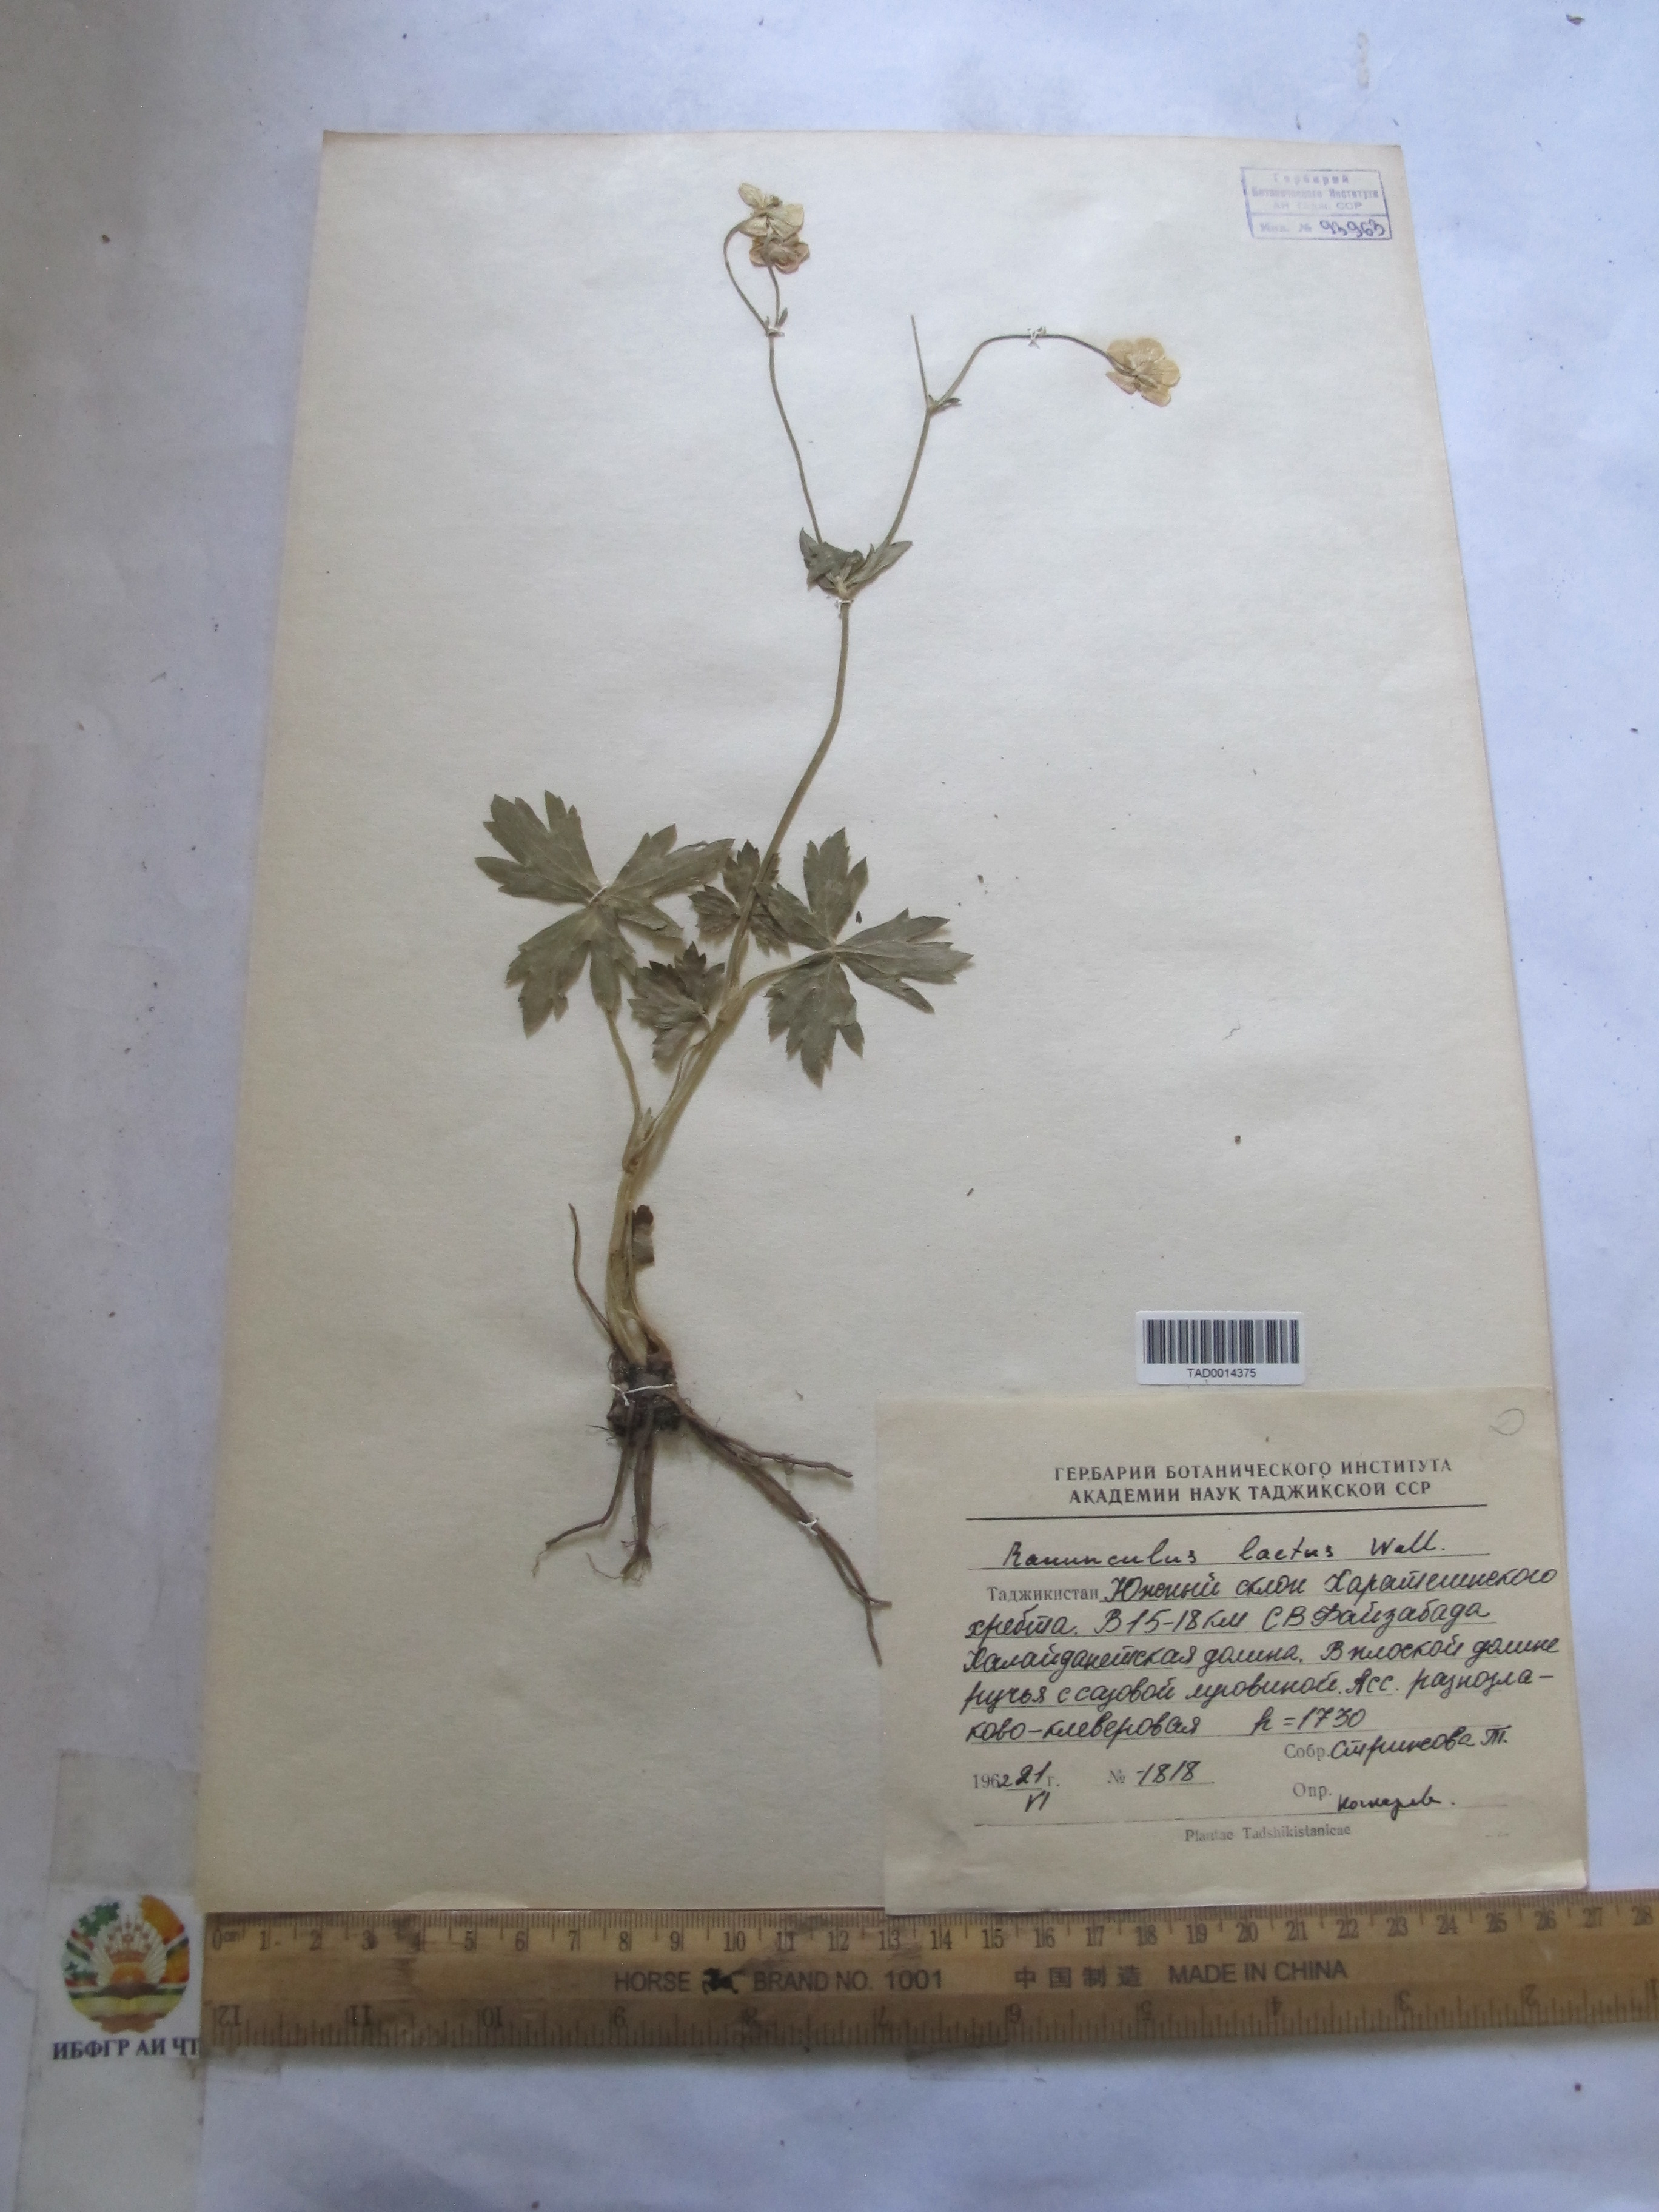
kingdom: Plantae
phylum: Tracheophyta
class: Magnoliopsida
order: Ranunculales
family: Ranunculaceae
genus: Ranunculus
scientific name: Ranunculus distans
